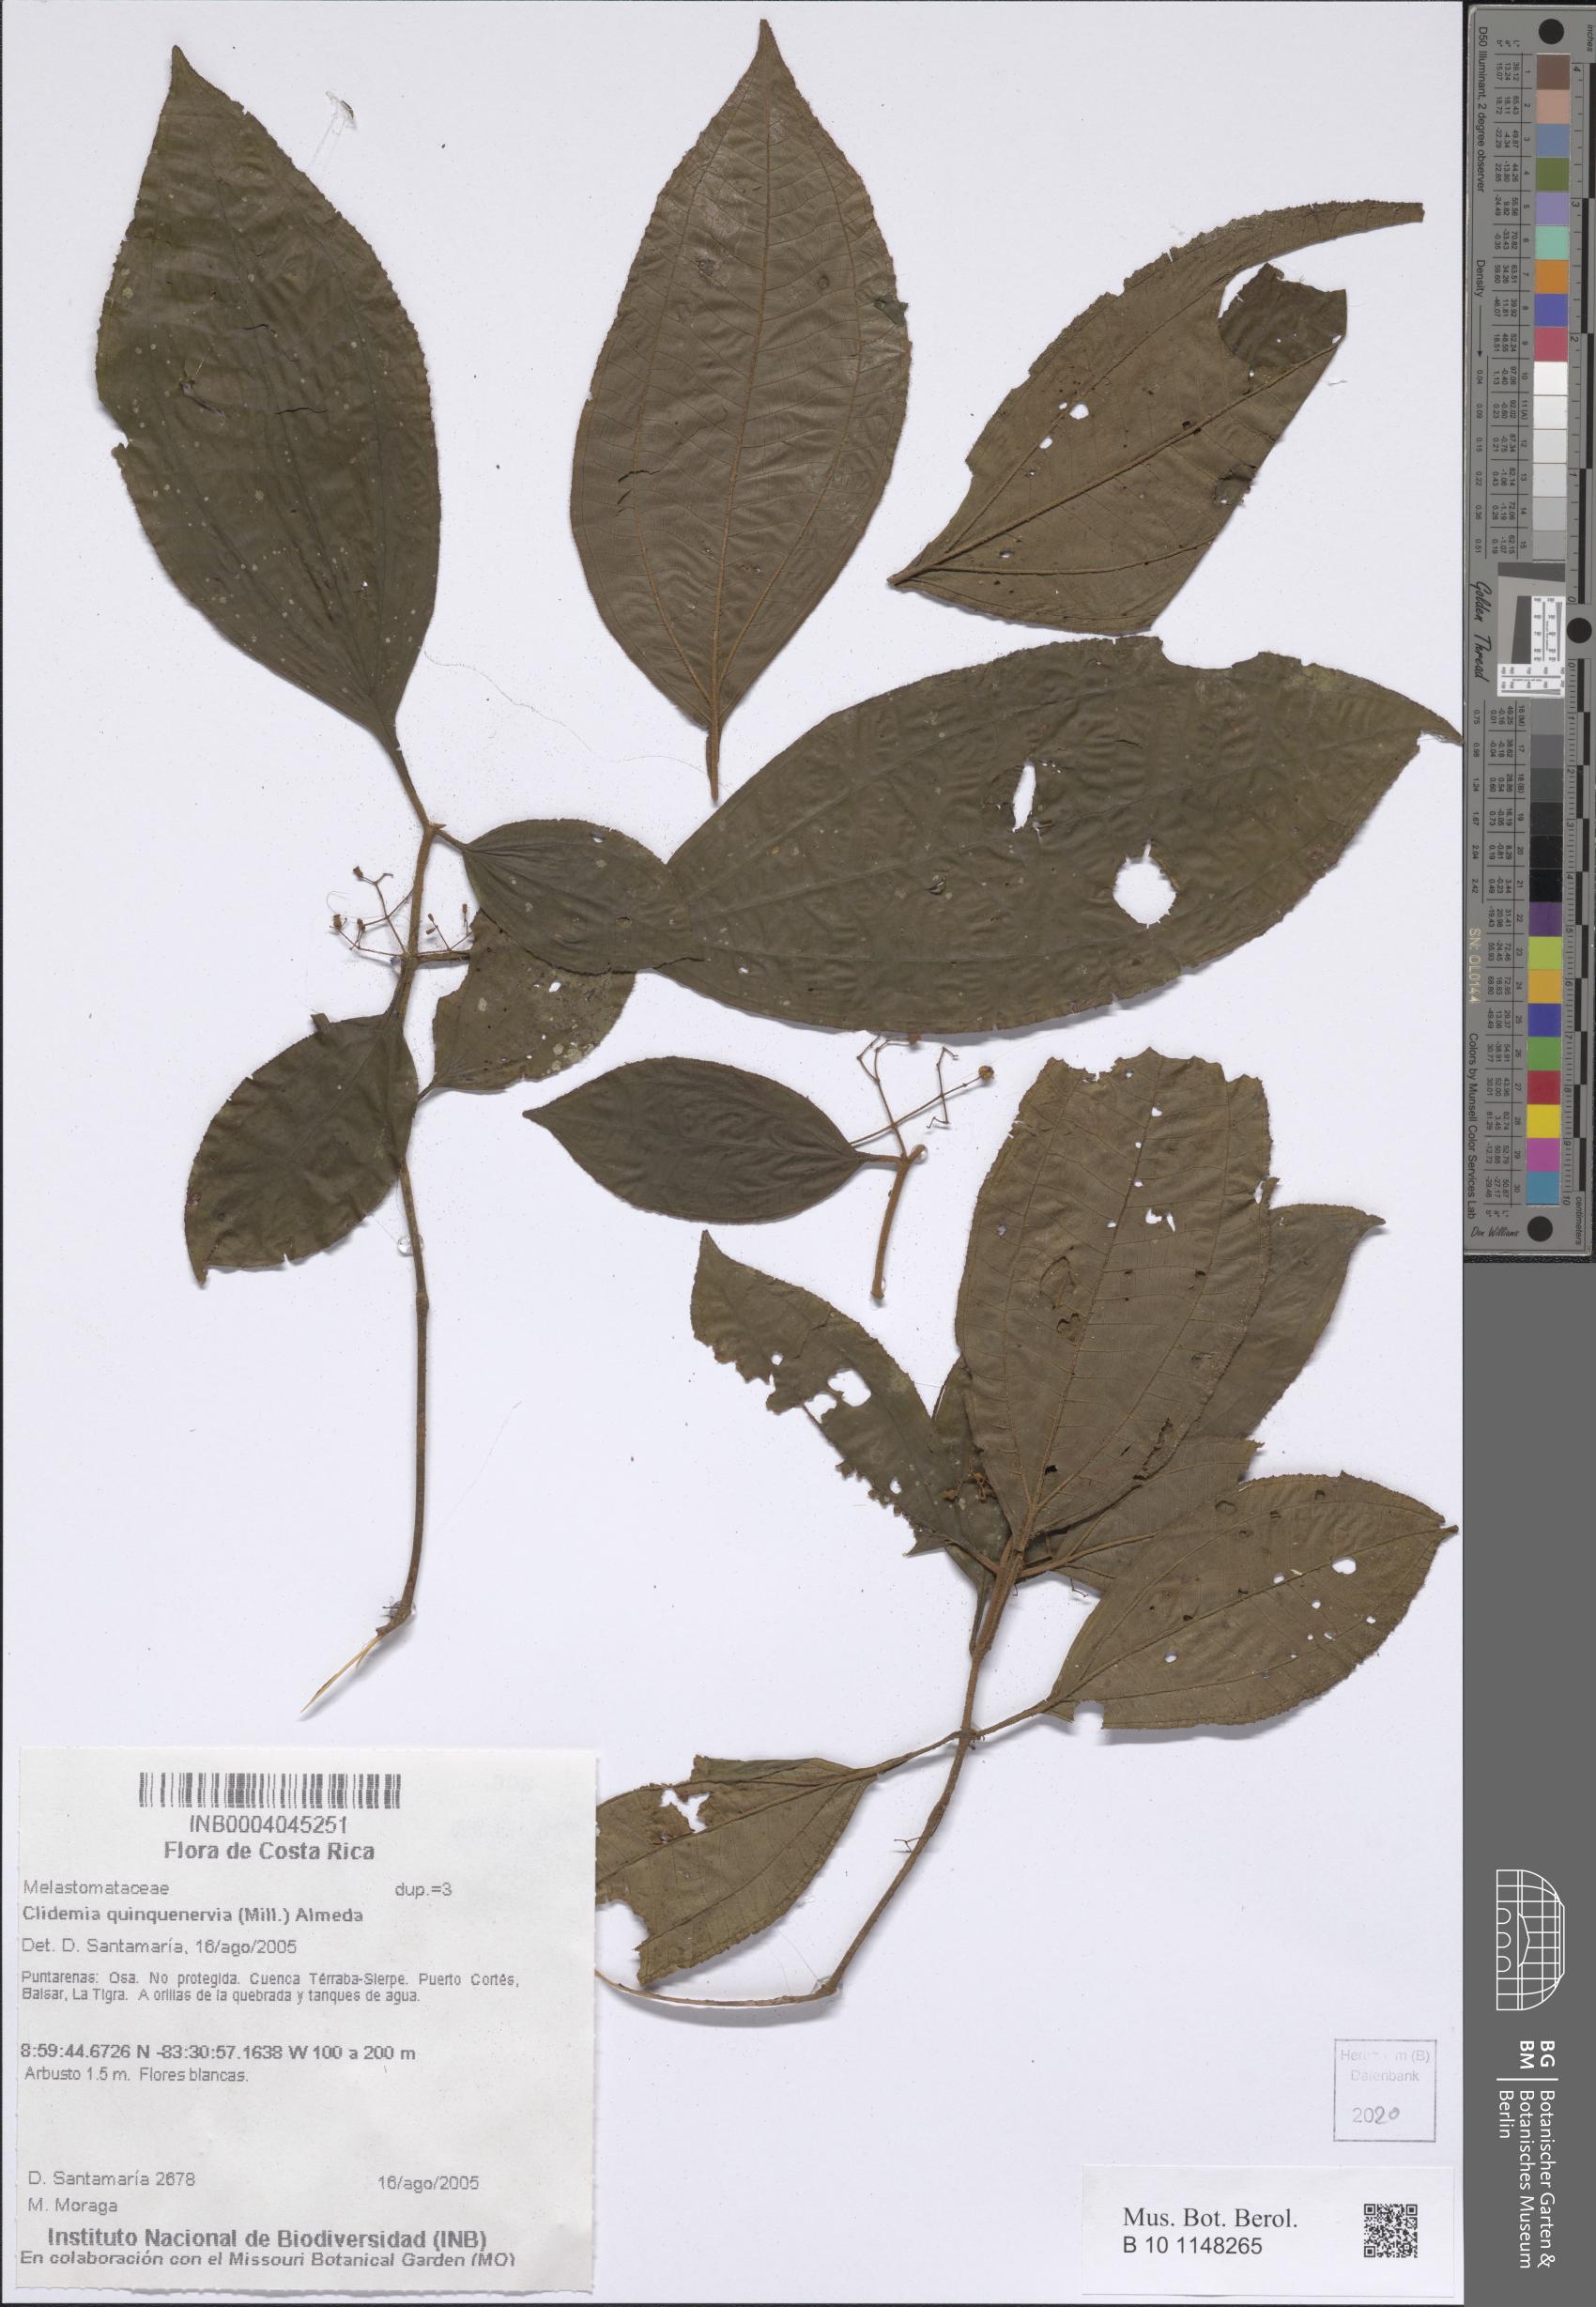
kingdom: Plantae
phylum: Tracheophyta
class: Magnoliopsida
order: Myrtales
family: Melastomataceae
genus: Miconia
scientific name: Miconia quinquenervia
